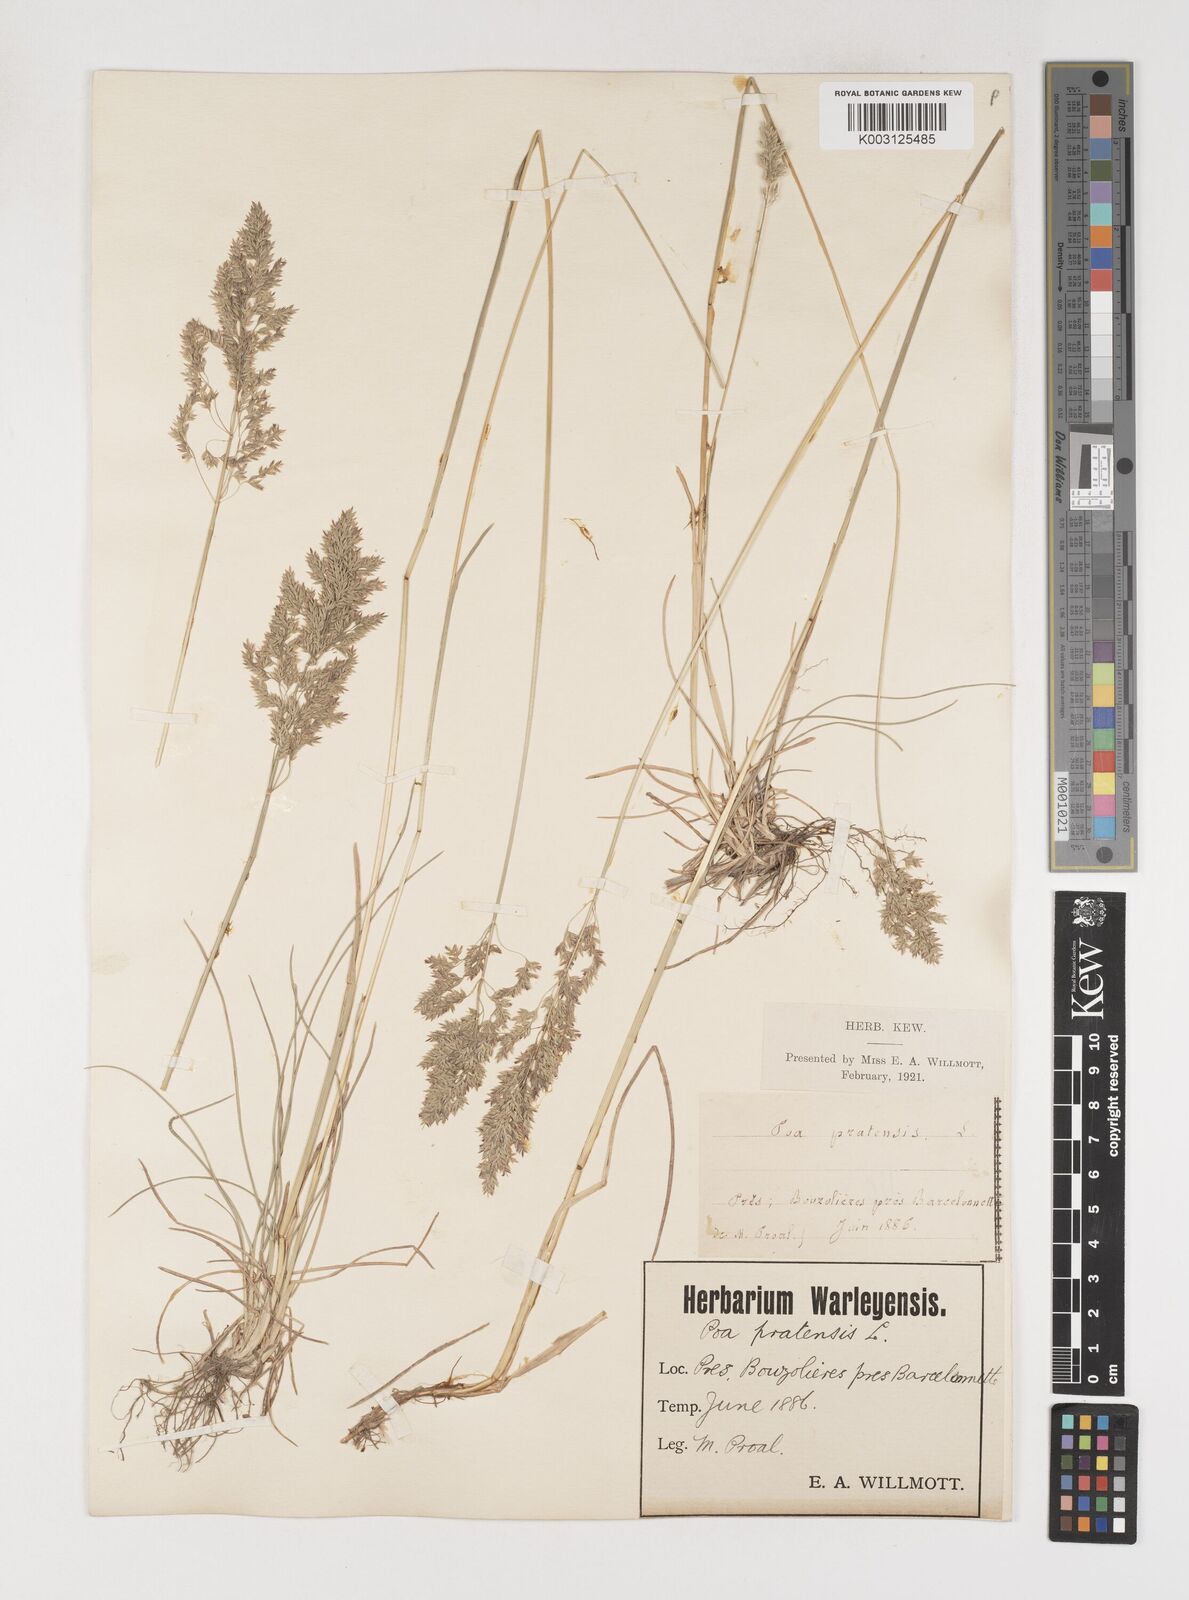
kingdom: Plantae
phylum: Tracheophyta
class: Liliopsida
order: Poales
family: Poaceae
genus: Poa
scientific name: Poa angustifolia
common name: Narrow-leaved meadow-grass
